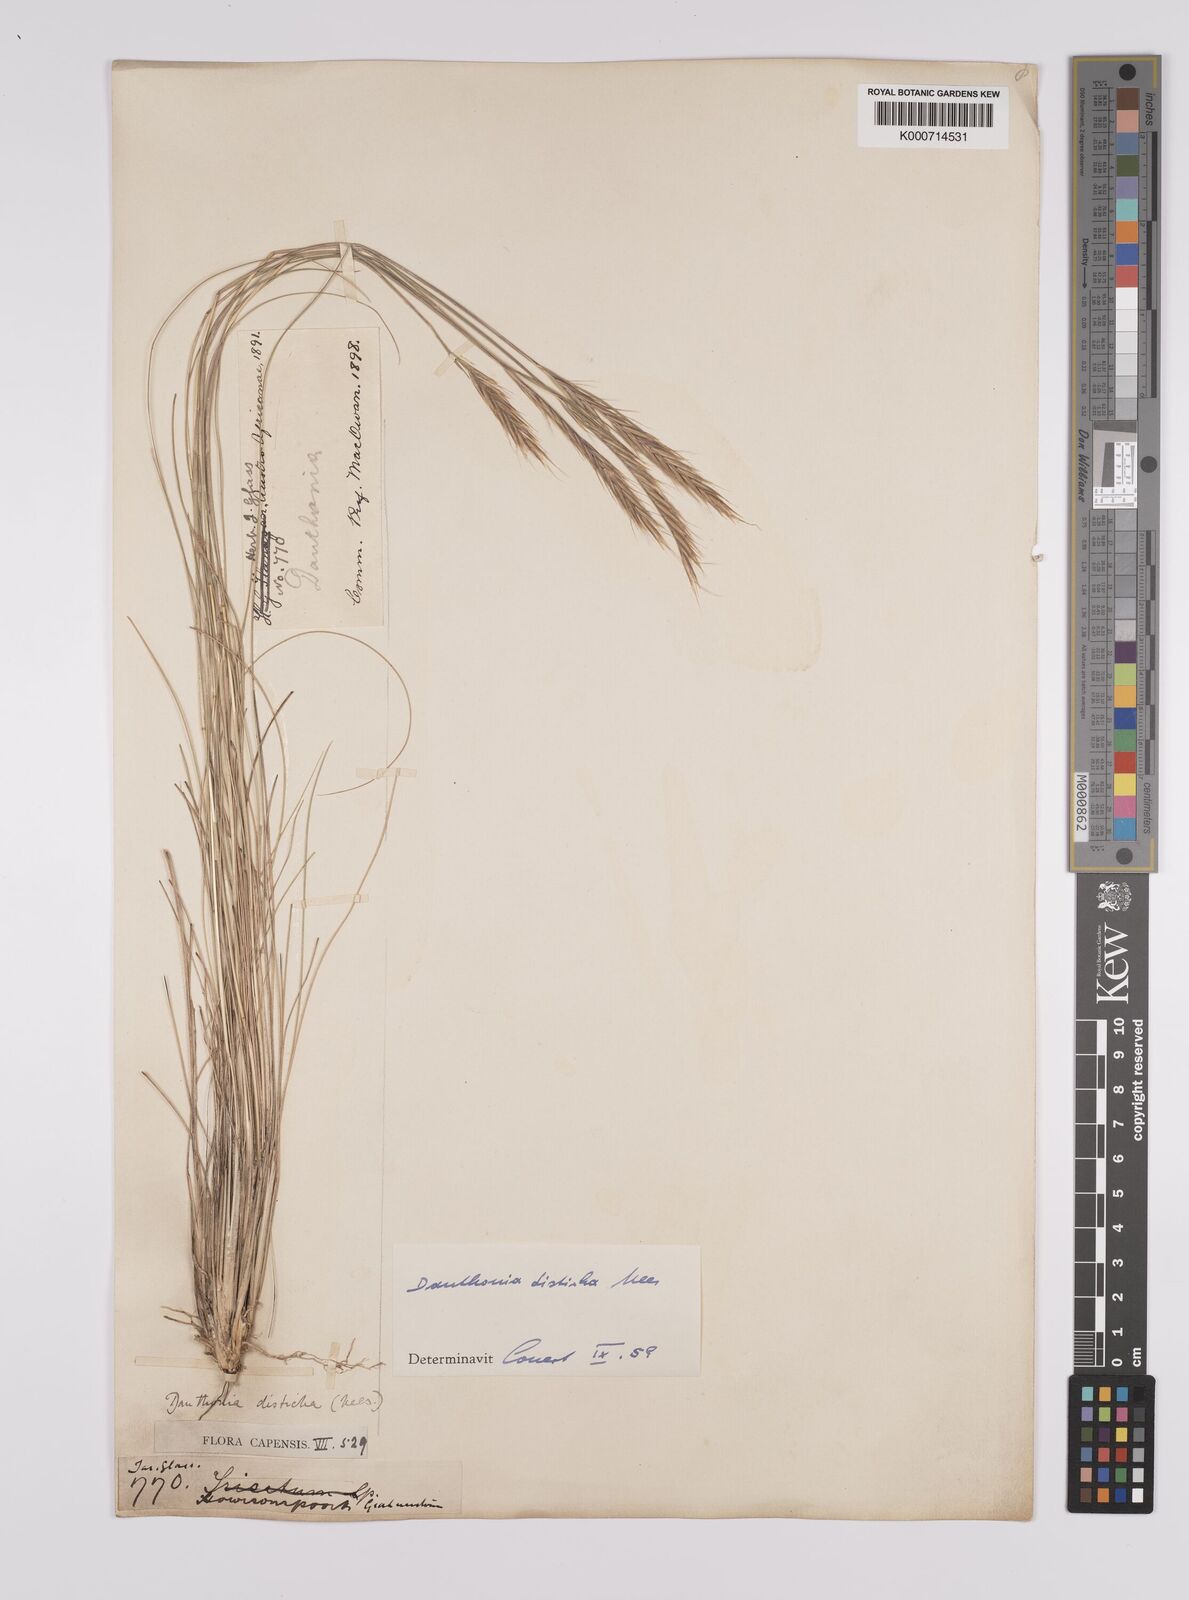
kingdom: Plantae
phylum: Tracheophyta
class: Liliopsida
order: Poales
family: Poaceae
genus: Tenaxia
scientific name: Tenaxia disticha
